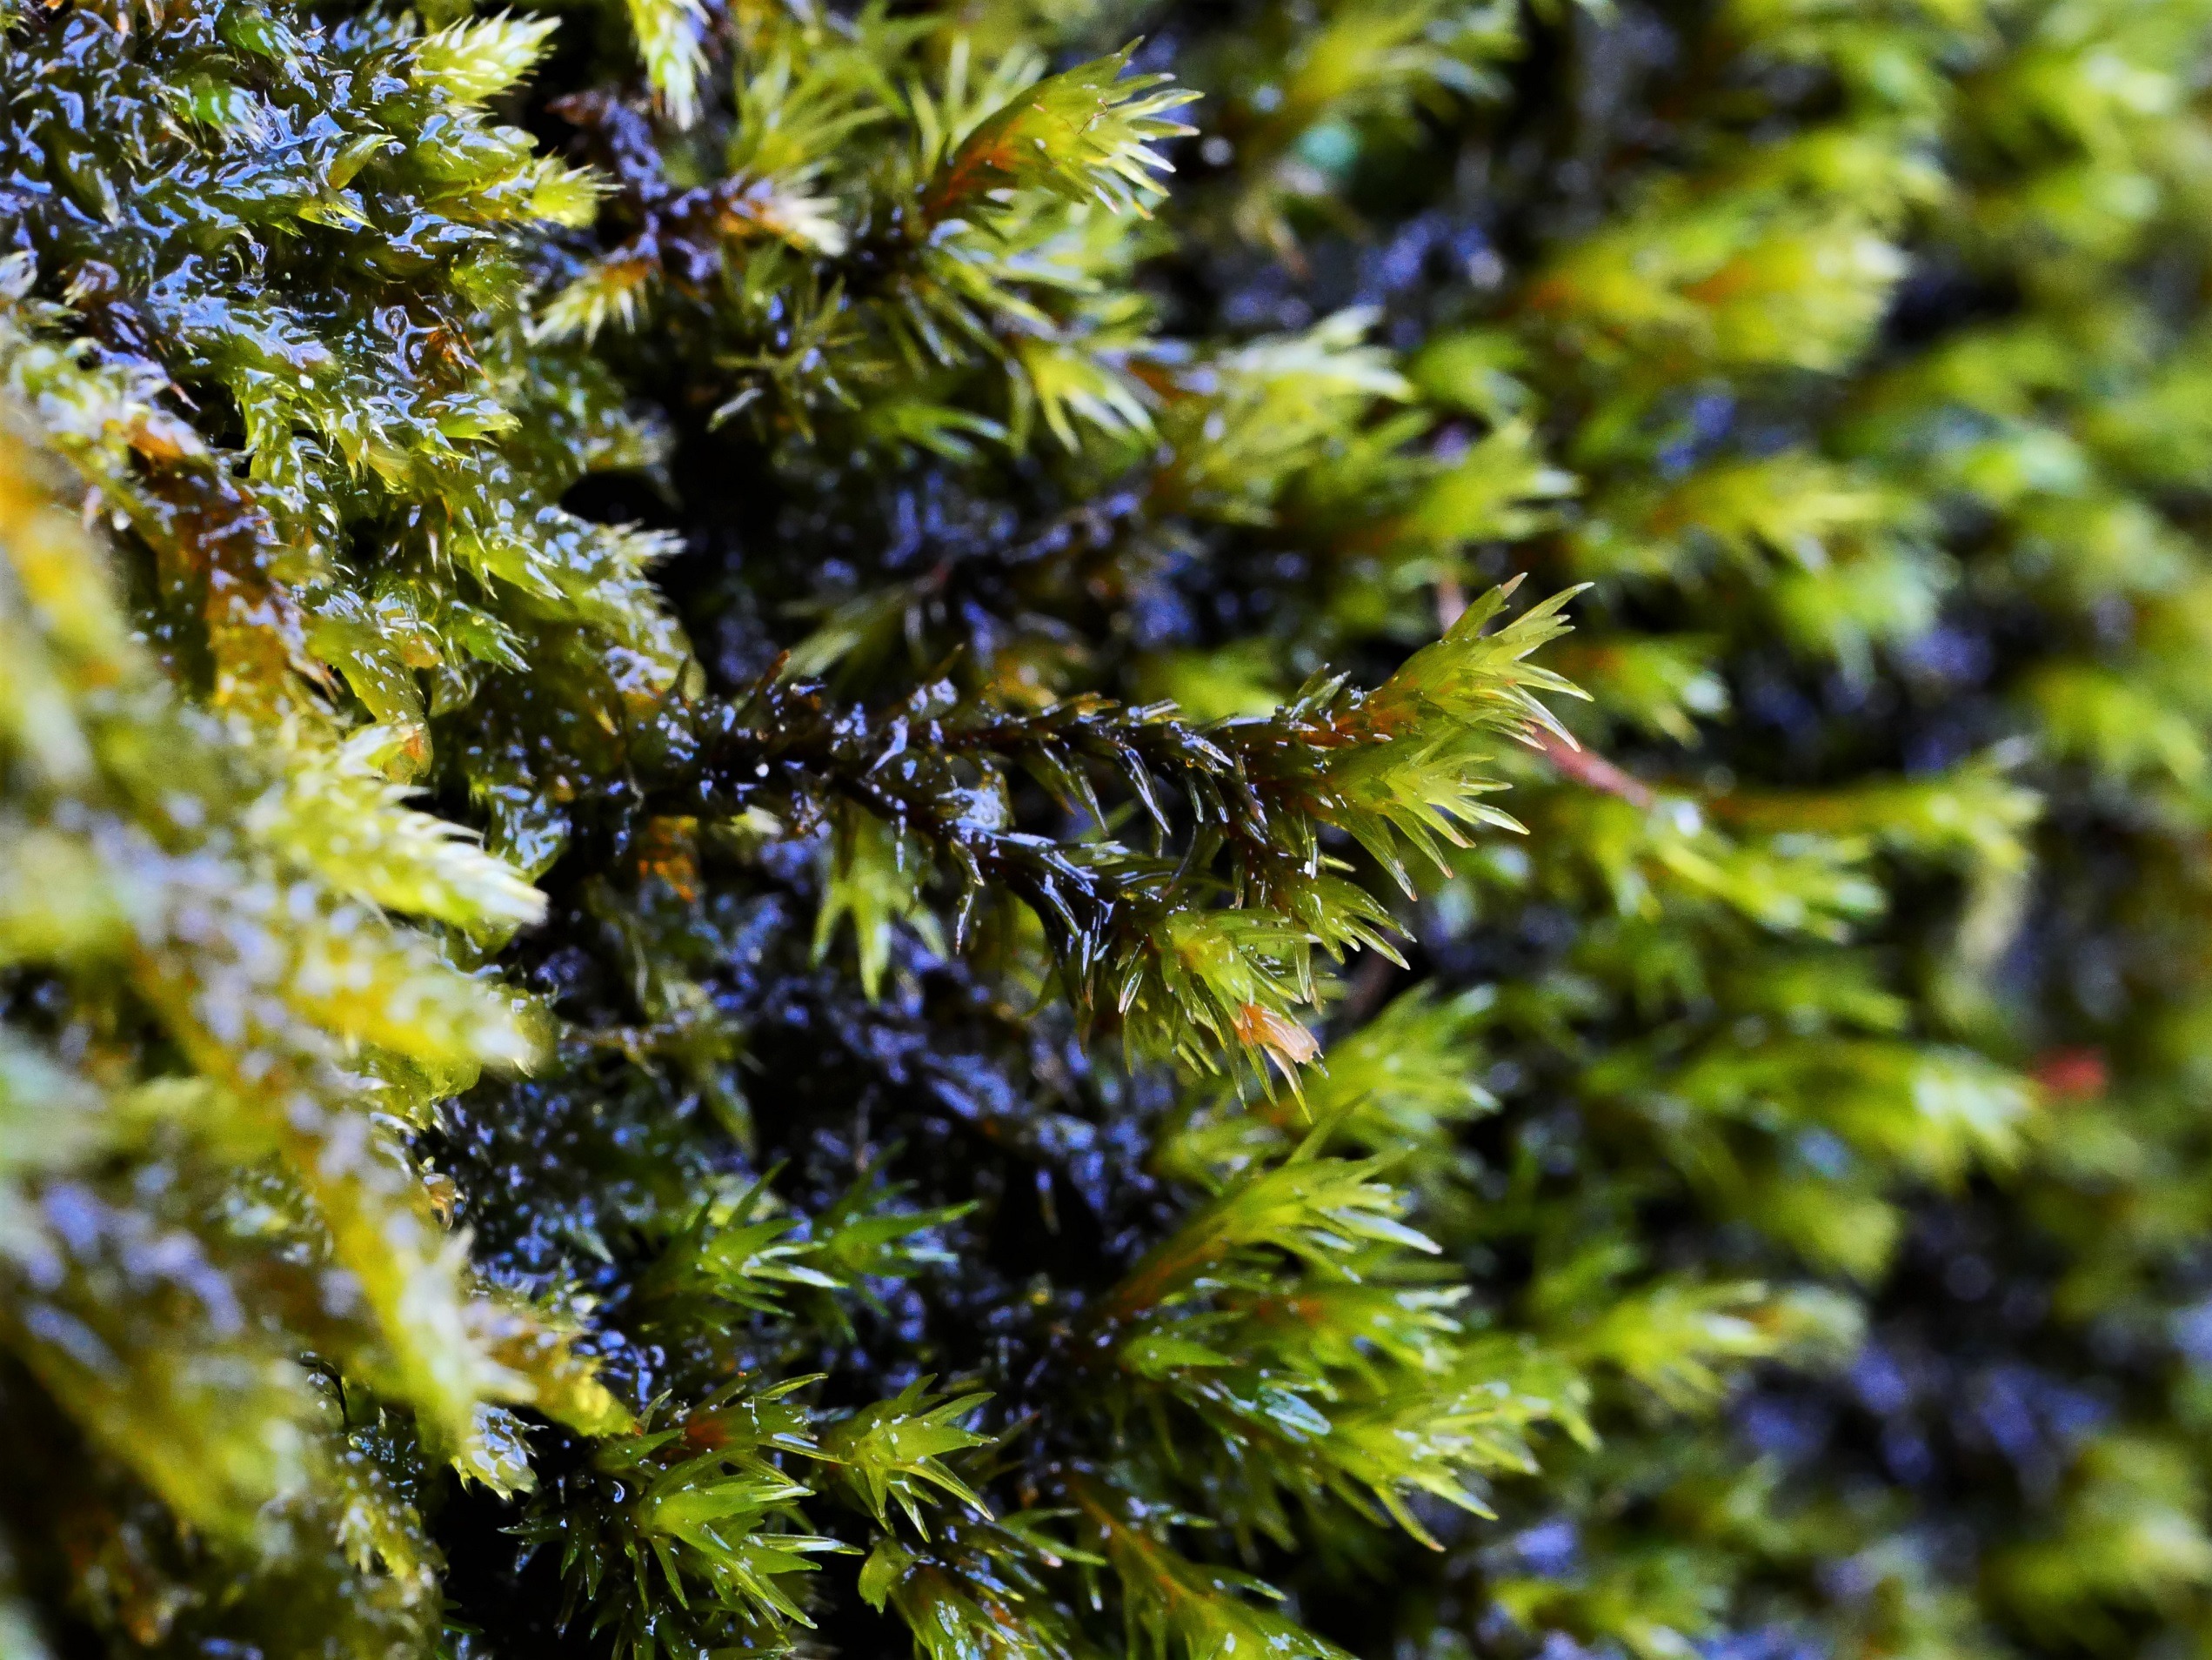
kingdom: Plantae
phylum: Bryophyta
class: Bryopsida
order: Grimmiales
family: Grimmiaceae
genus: Codriophorus
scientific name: Codriophorus aquaticus
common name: Kilde-børstemos
